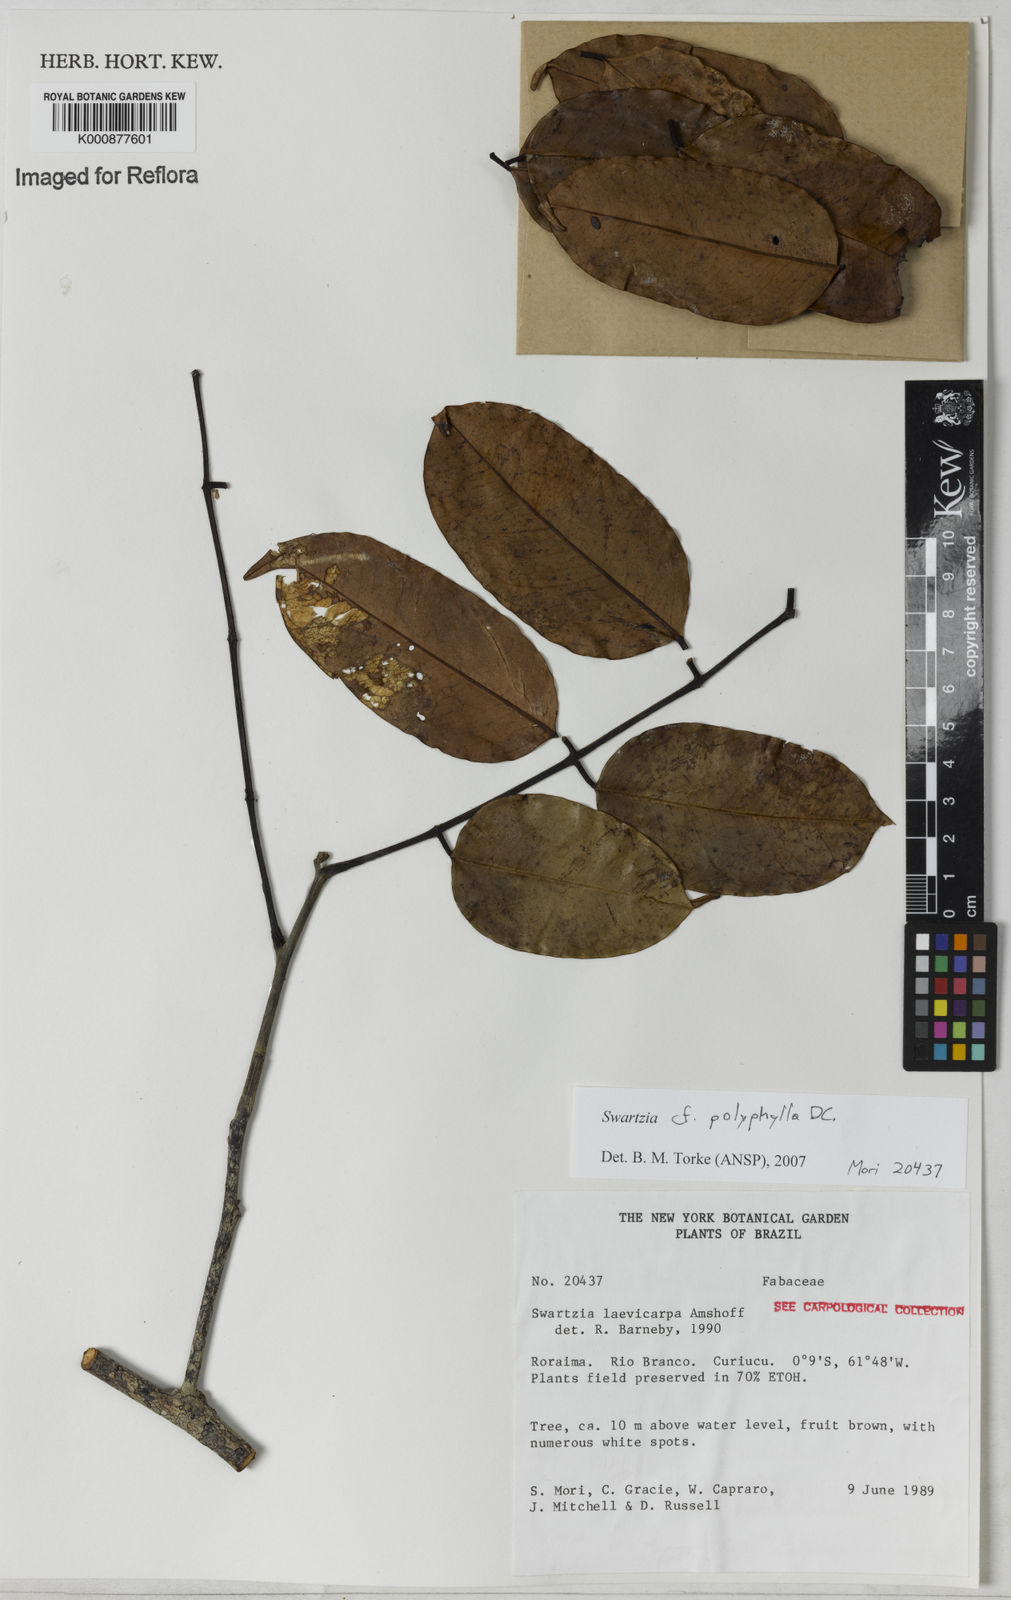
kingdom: Plantae
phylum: Tracheophyta
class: Magnoliopsida
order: Fabales
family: Fabaceae
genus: Swartzia
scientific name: Swartzia polyphylla
